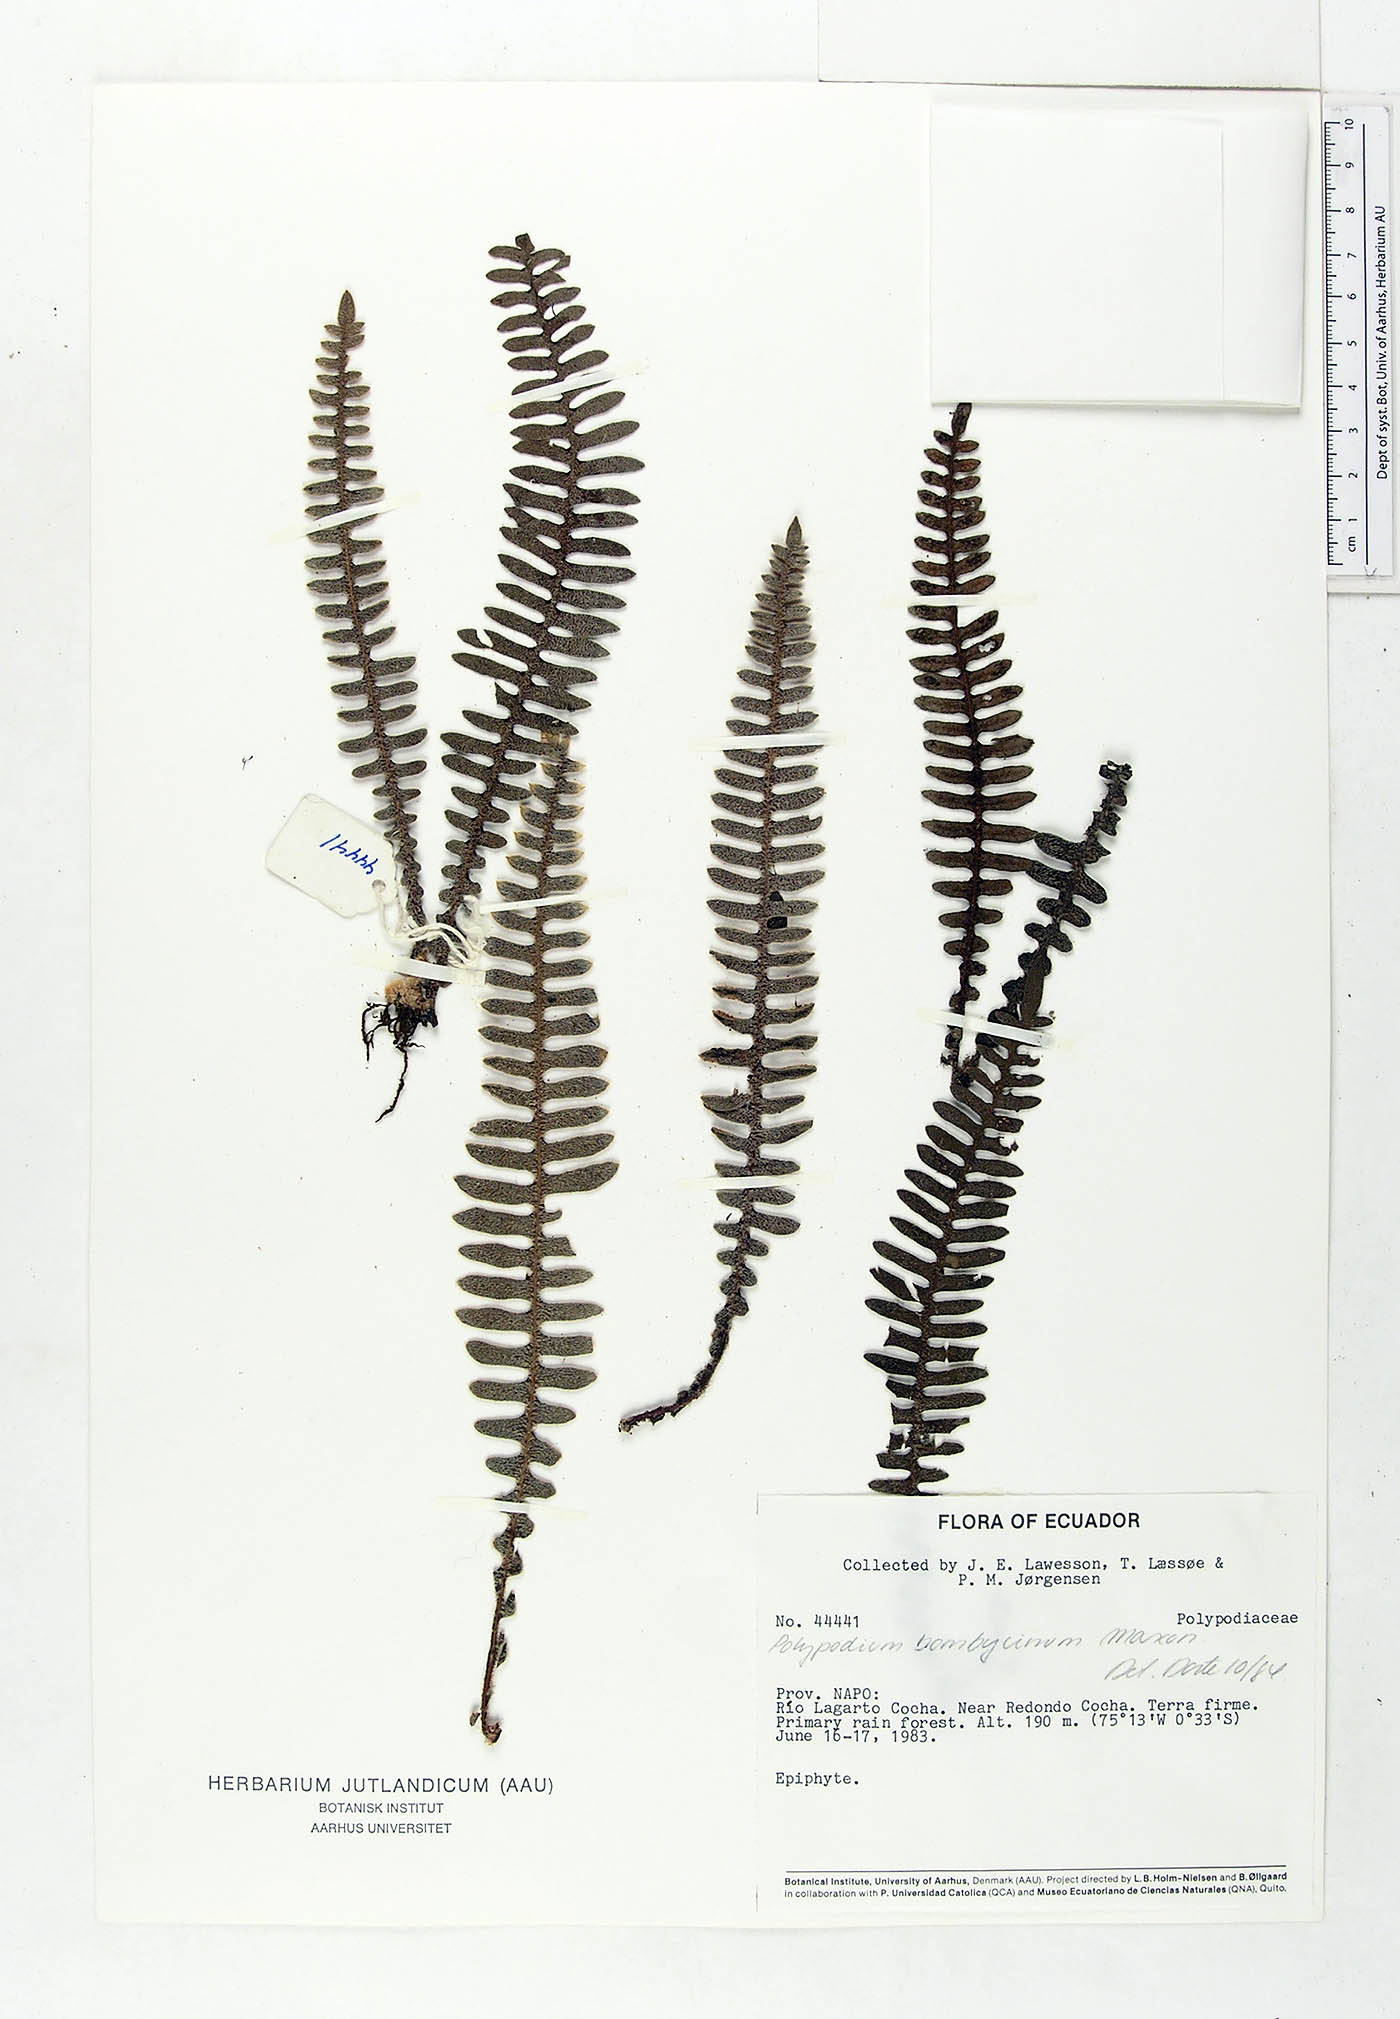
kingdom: Plantae
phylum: Tracheophyta
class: Polypodiopsida
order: Polypodiales
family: Polypodiaceae
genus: Pleopeltis
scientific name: Pleopeltis bombycina
